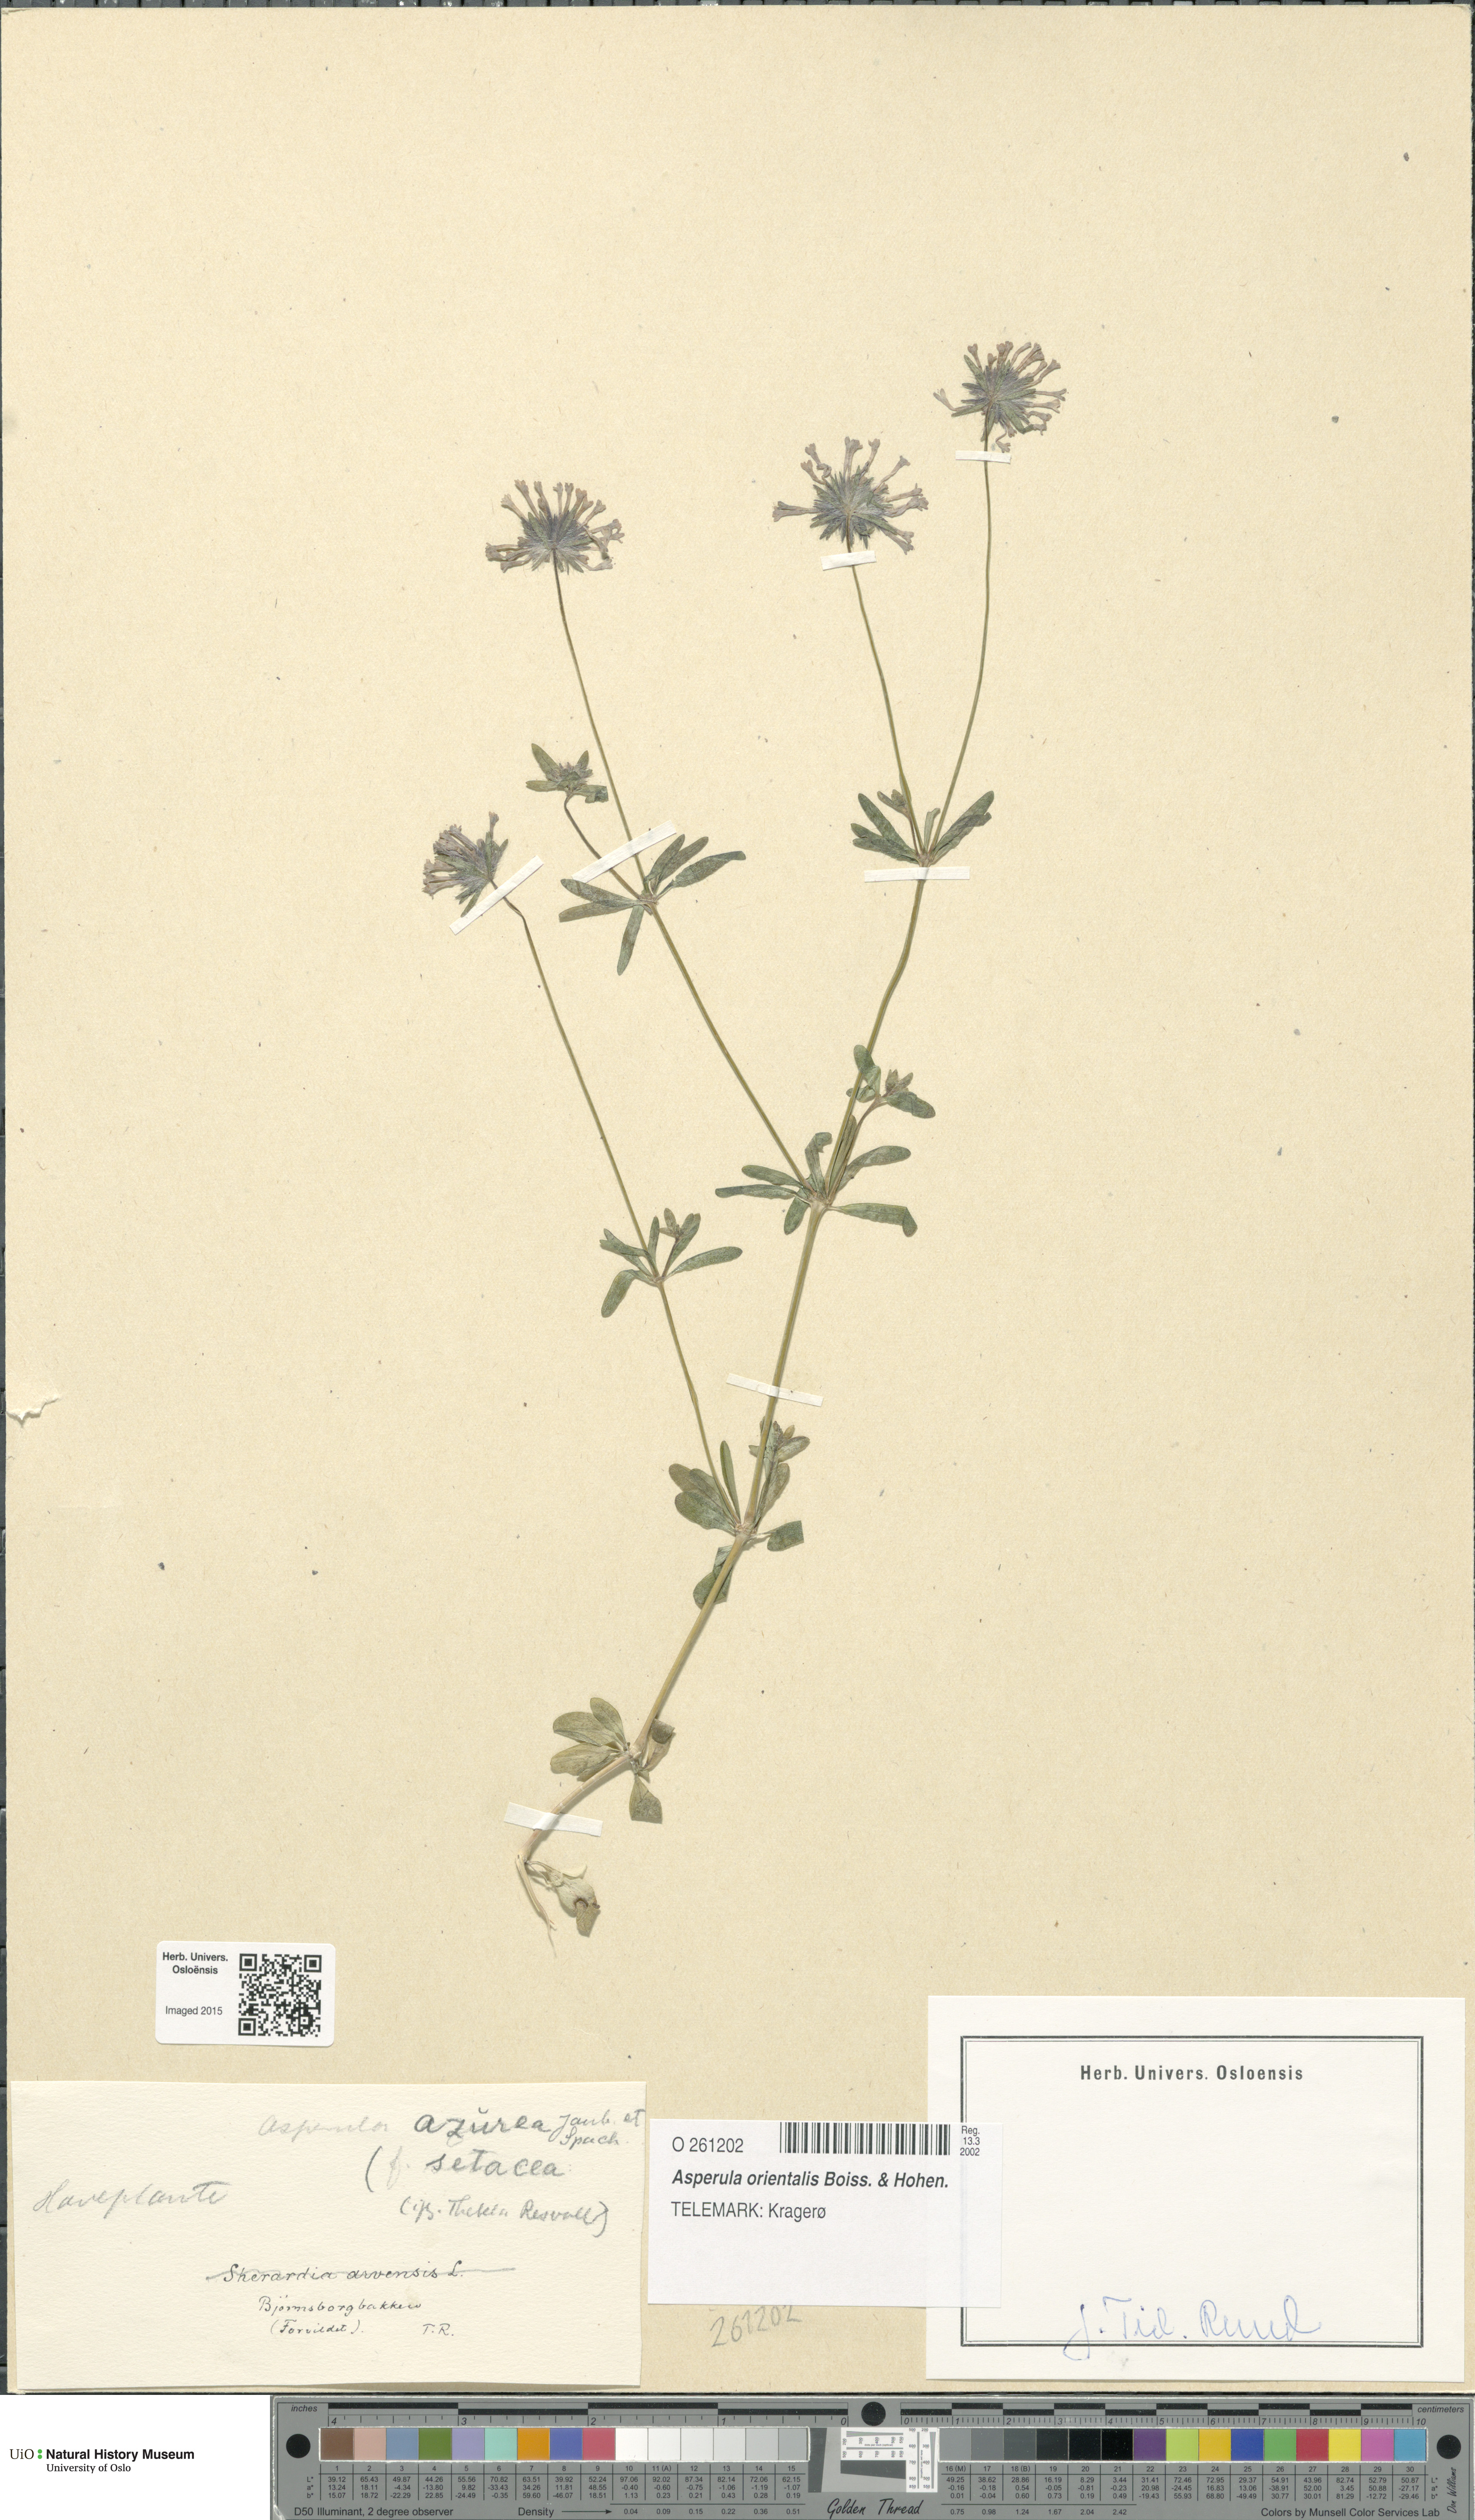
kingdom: Plantae
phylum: Tracheophyta
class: Magnoliopsida
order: Gentianales
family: Rubiaceae
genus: Asperula
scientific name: Asperula orientalis
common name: Oriental asperula
